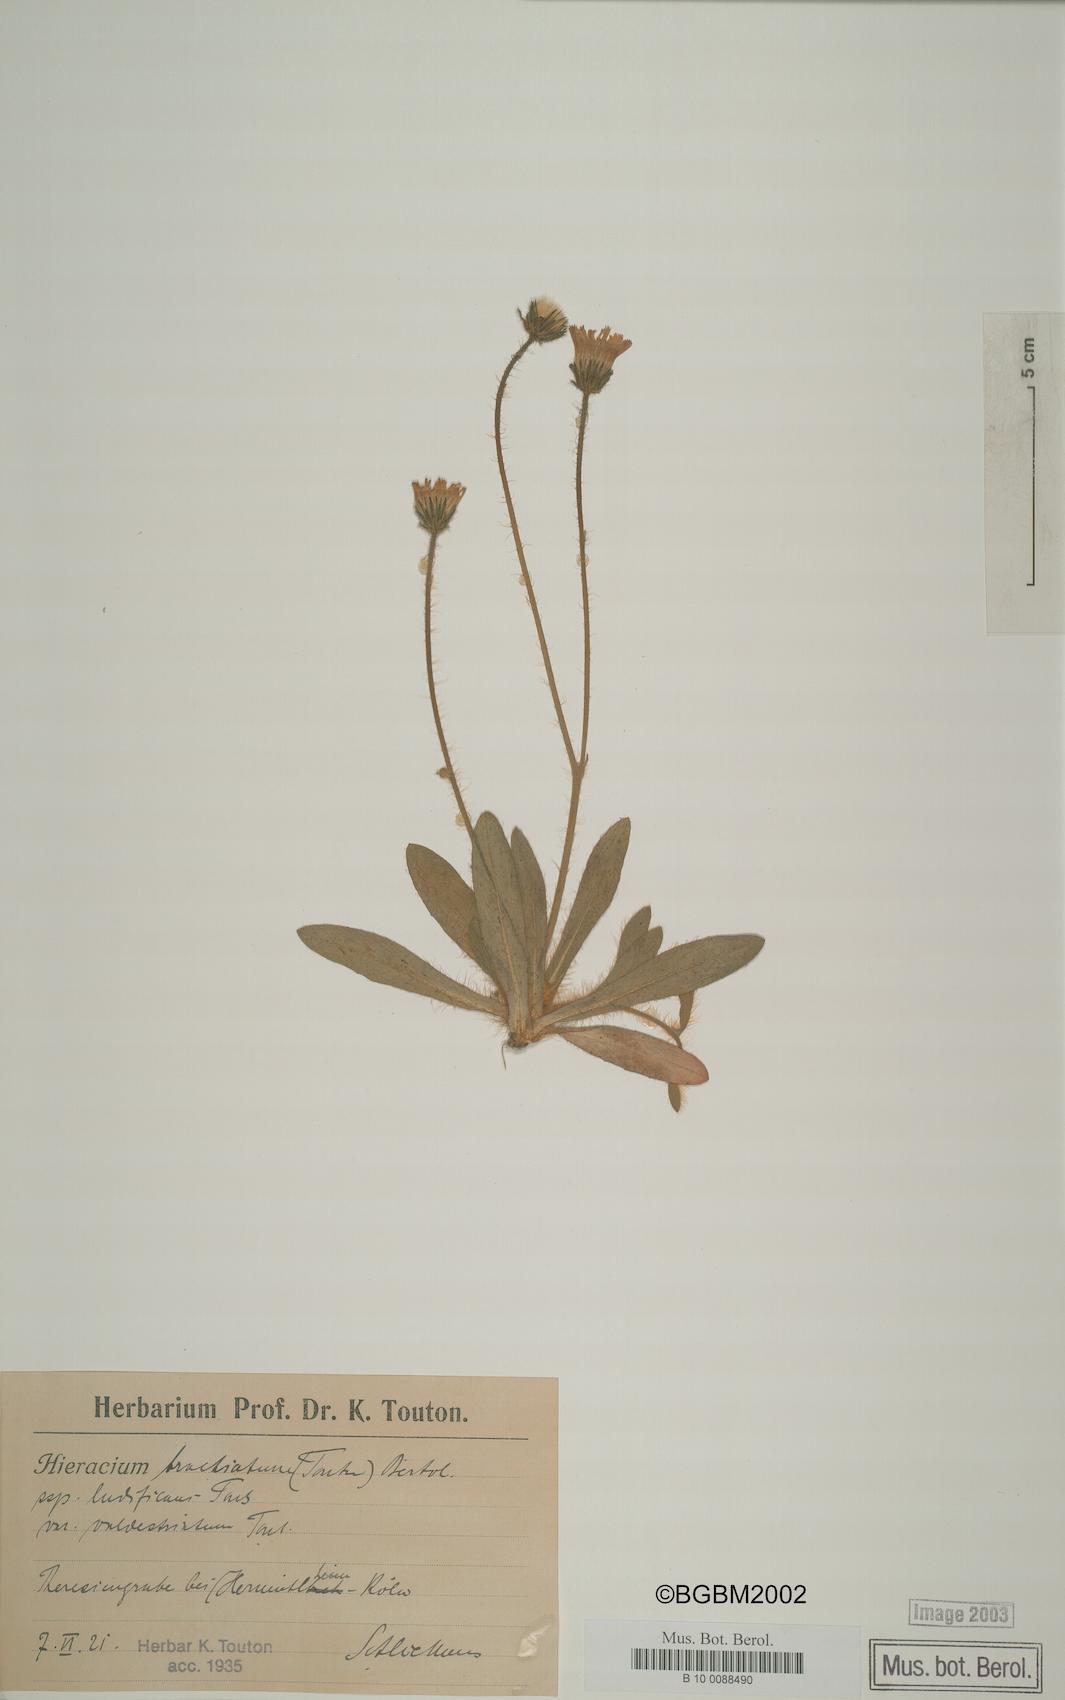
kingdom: Plantae
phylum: Tracheophyta
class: Magnoliopsida
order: Asterales
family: Asteraceae
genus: Pilosella
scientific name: Pilosella acutifolia
